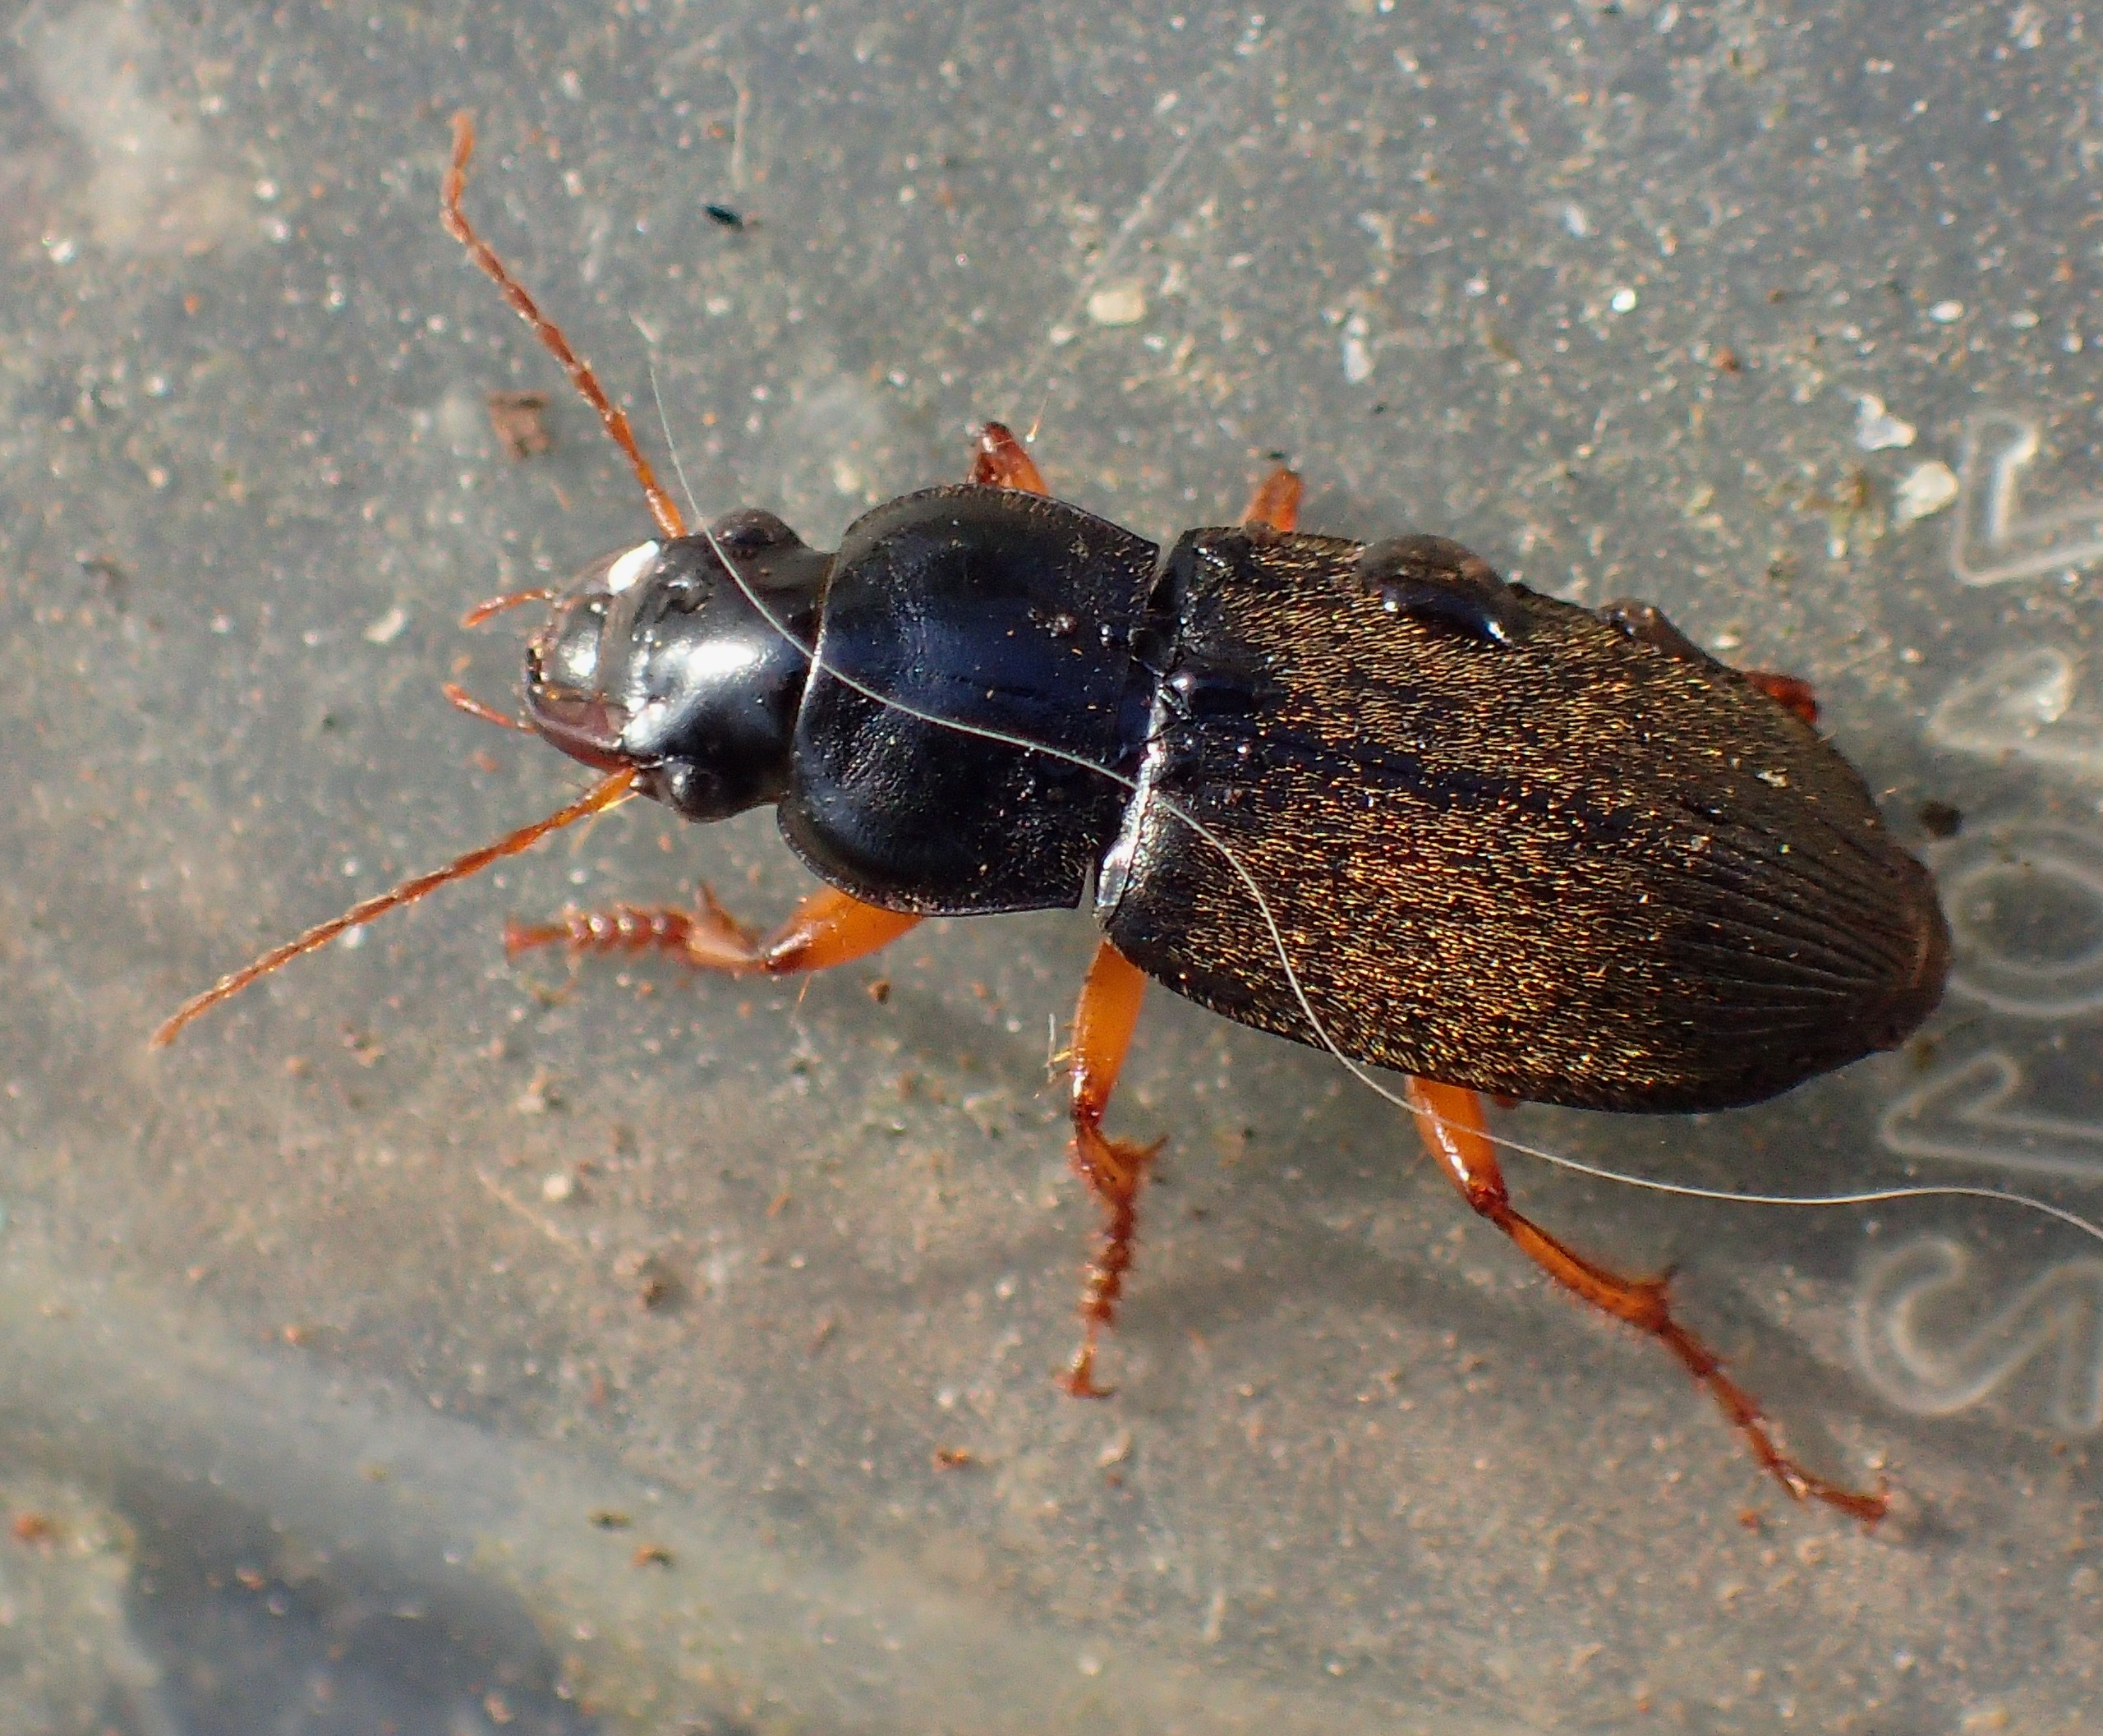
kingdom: Animalia
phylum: Arthropoda
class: Insecta
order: Coleoptera
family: Carabidae
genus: Harpalus
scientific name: Harpalus rufipes
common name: Håret markløber
